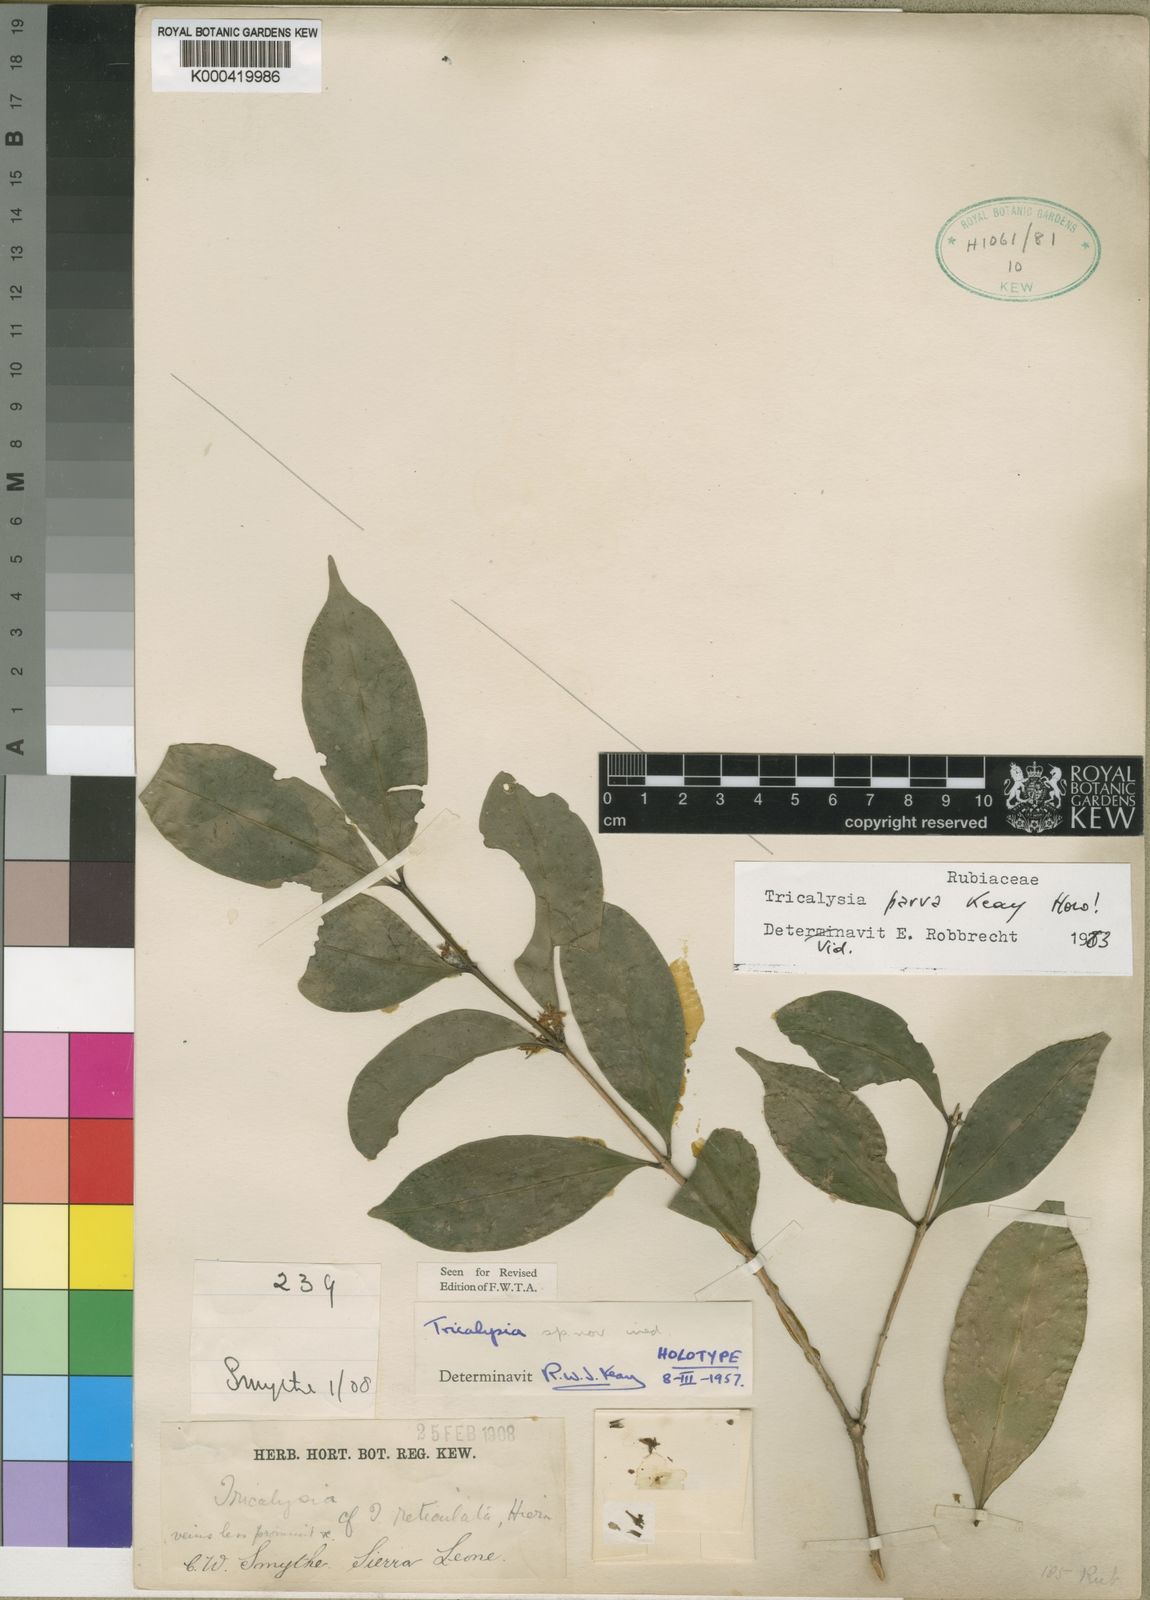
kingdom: Plantae
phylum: Tracheophyta
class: Magnoliopsida
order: Gentianales
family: Rubiaceae
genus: Tricalysia
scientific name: Tricalysia parva
